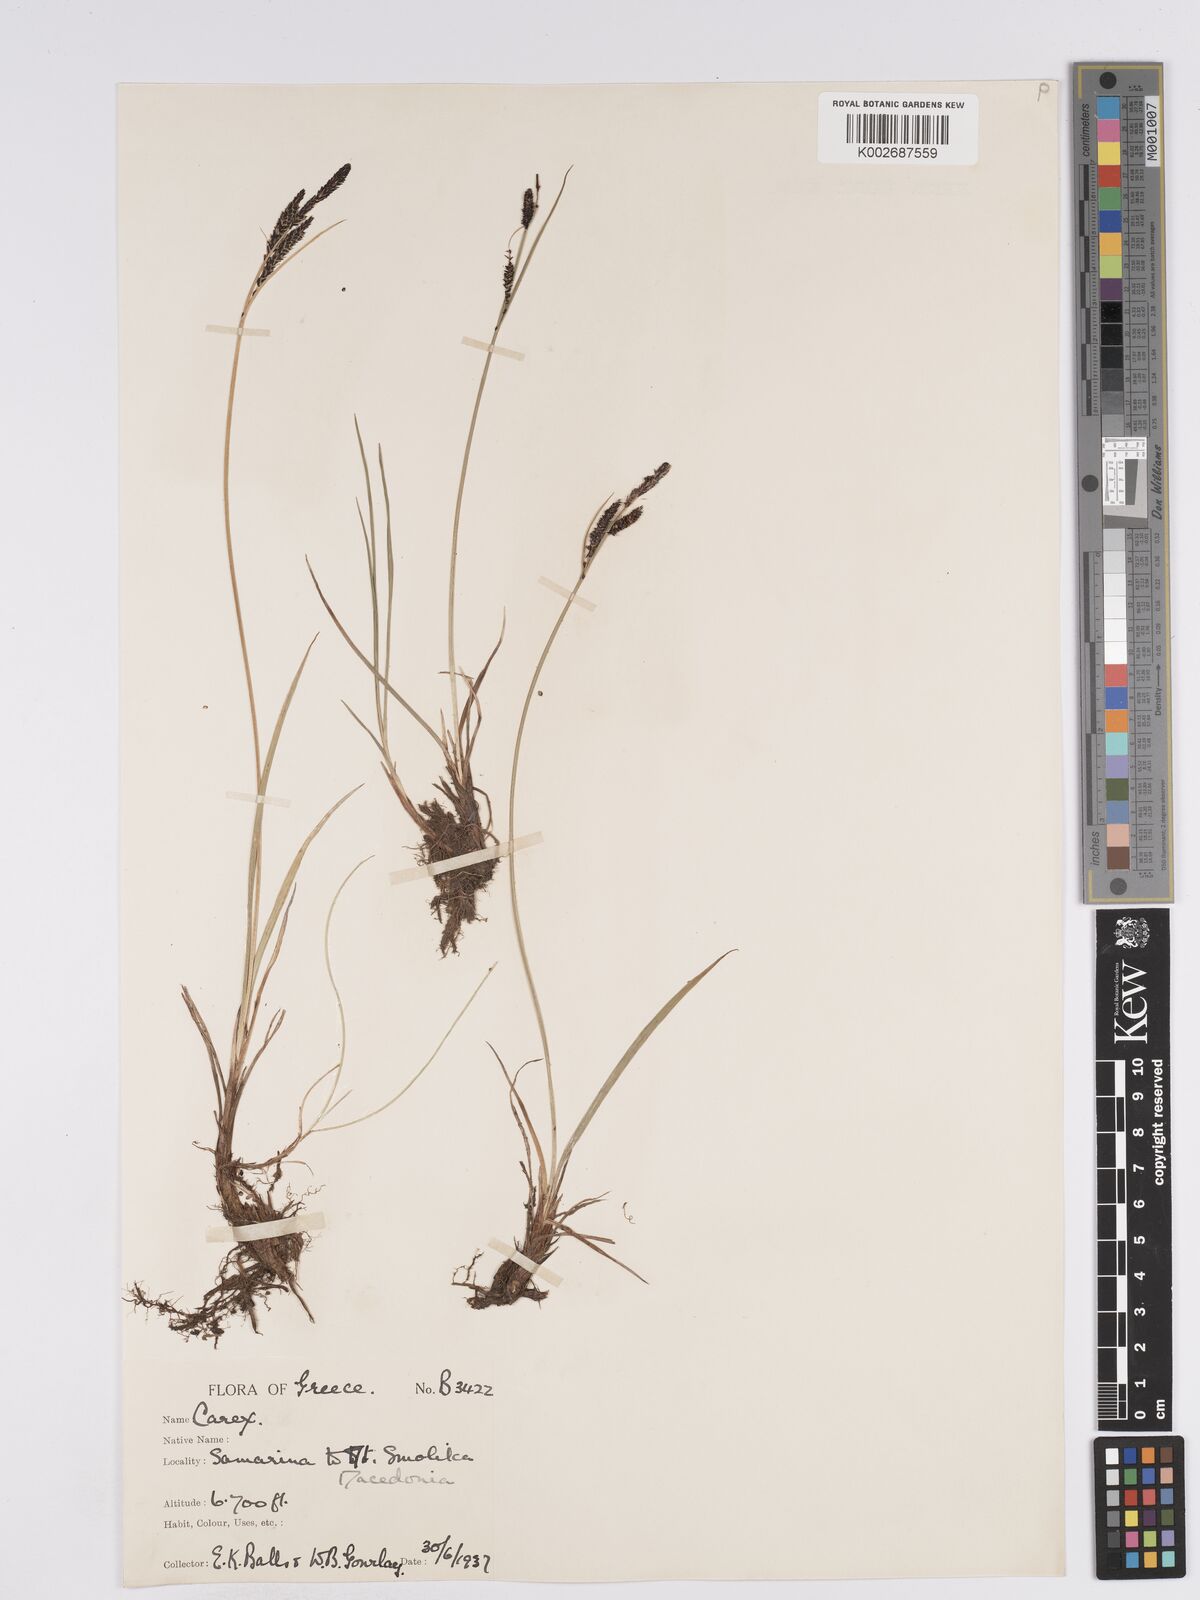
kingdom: Plantae
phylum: Tracheophyta
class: Liliopsida
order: Poales
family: Cyperaceae
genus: Carex
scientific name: Carex nigra
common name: Common sedge
